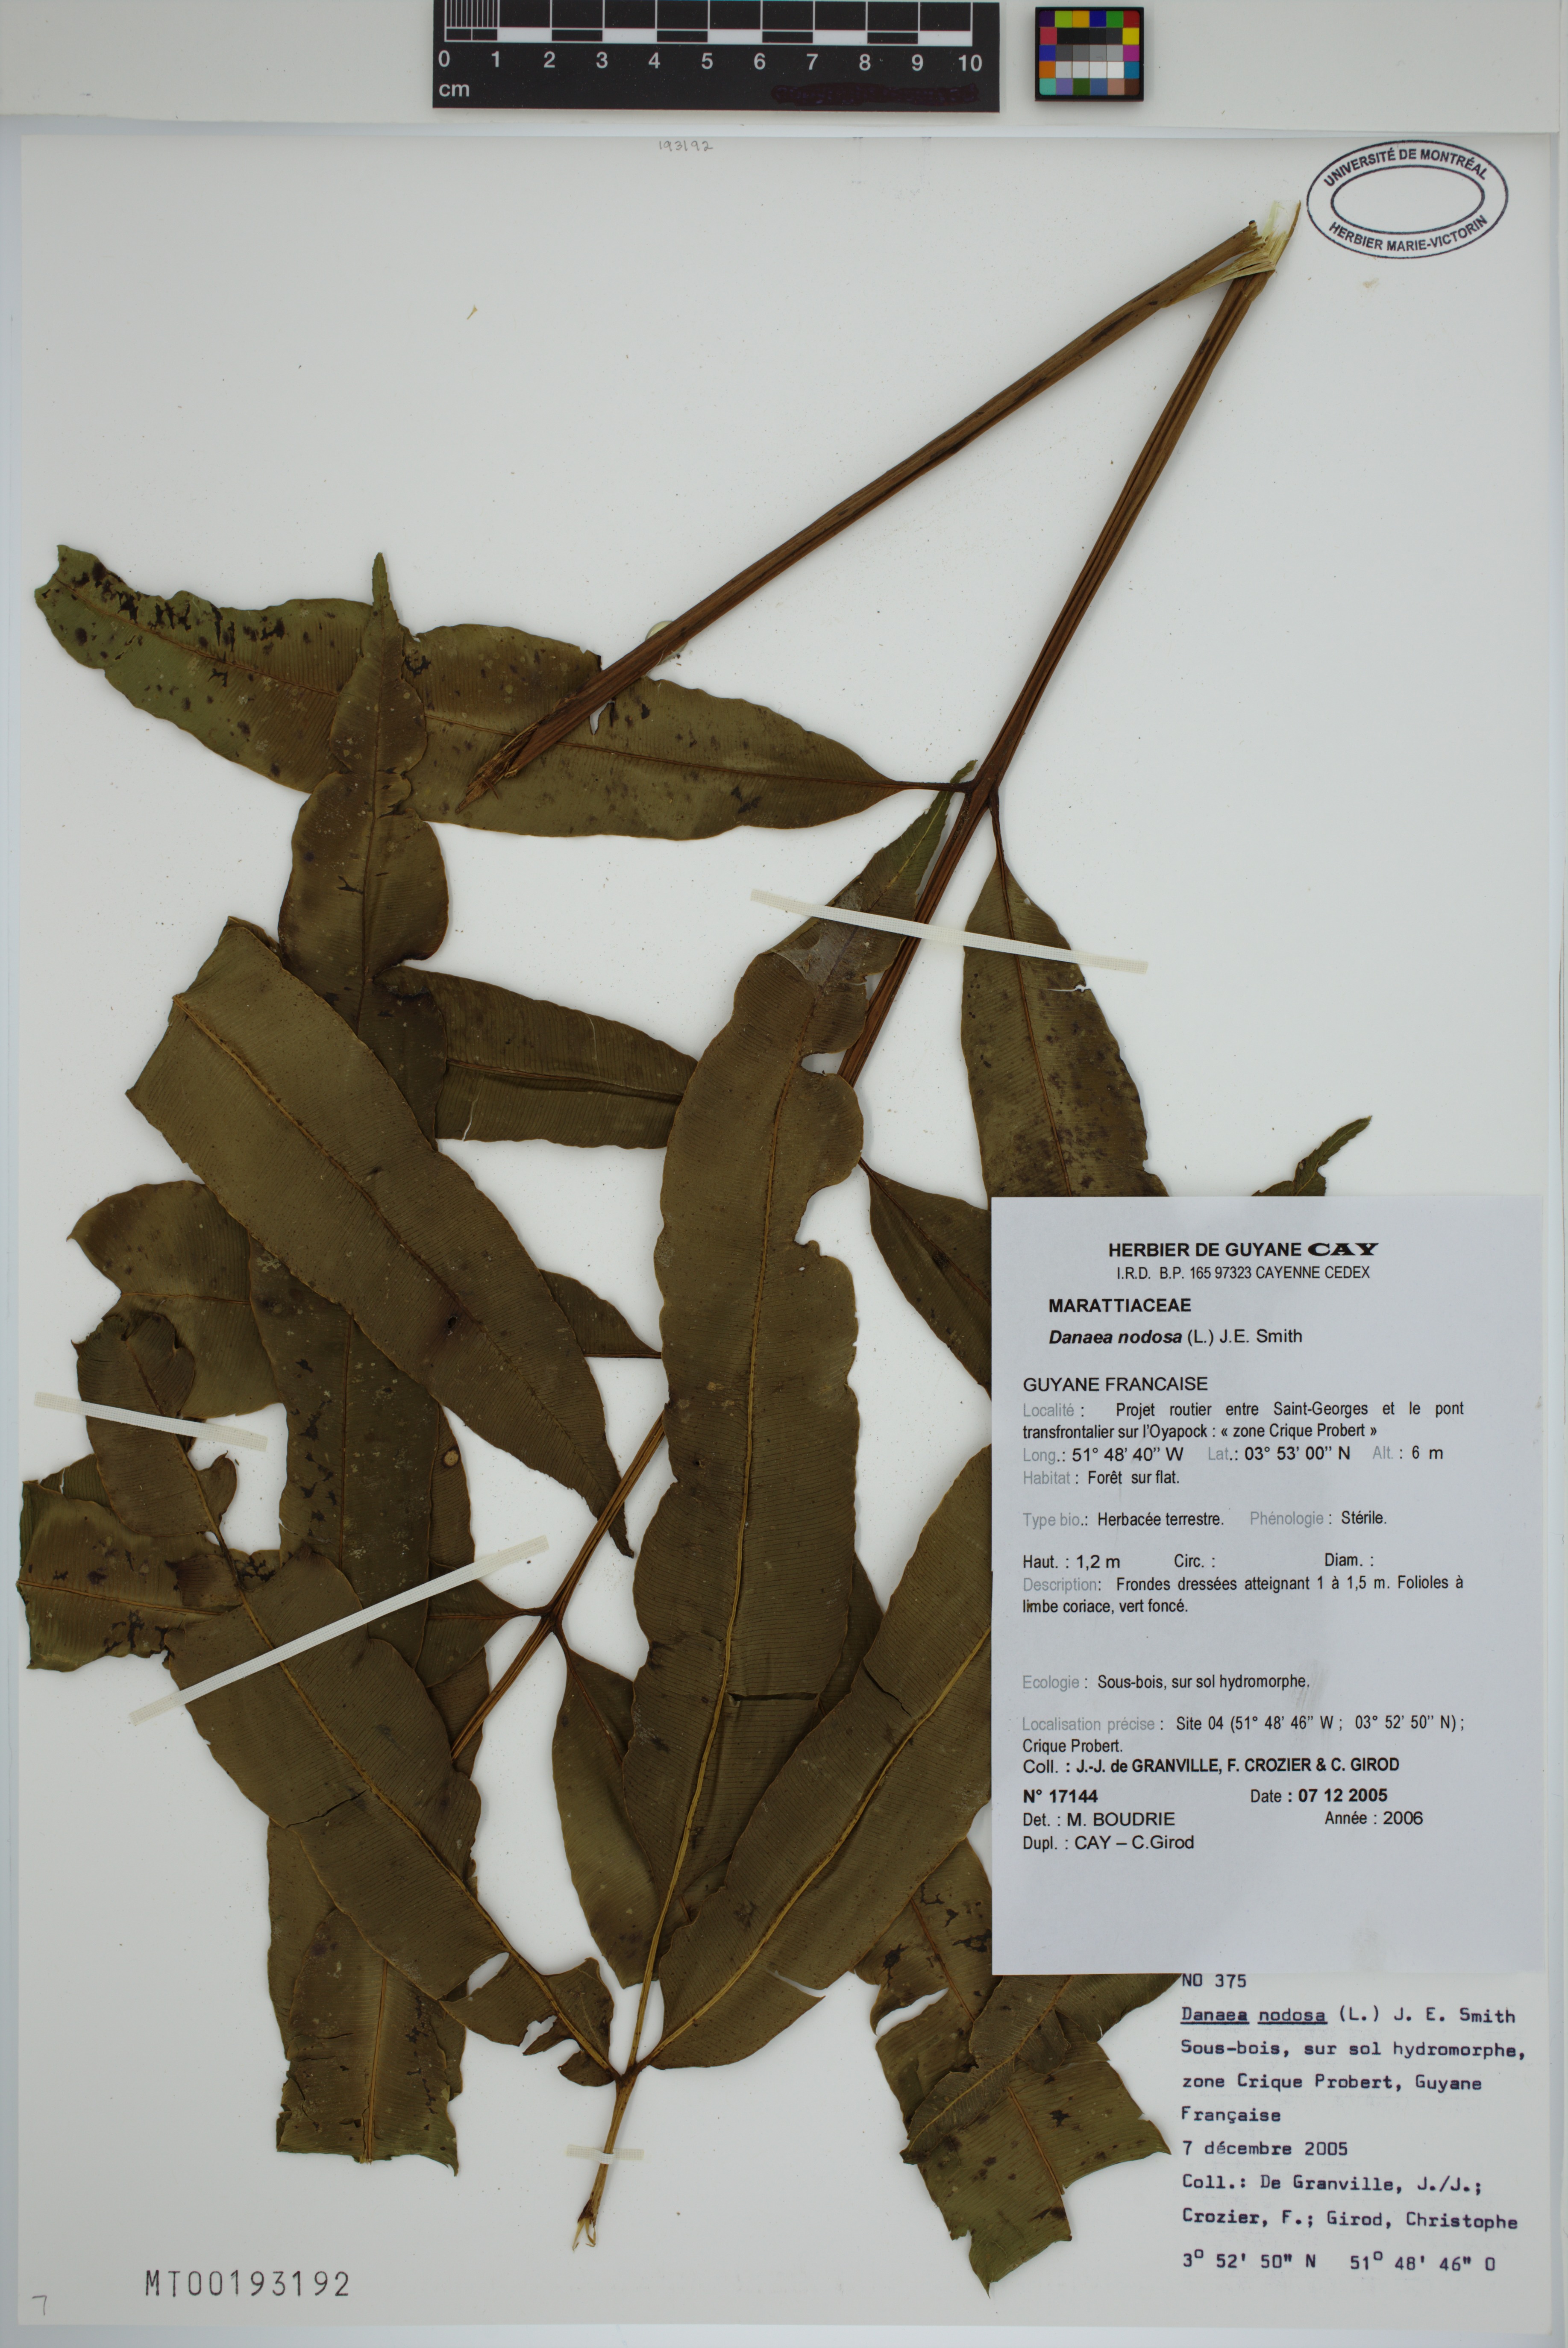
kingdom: Plantae
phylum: Tracheophyta
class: Polypodiopsida
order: Marattiales
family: Marattiaceae
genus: Danaea
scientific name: Danaea nodosa
